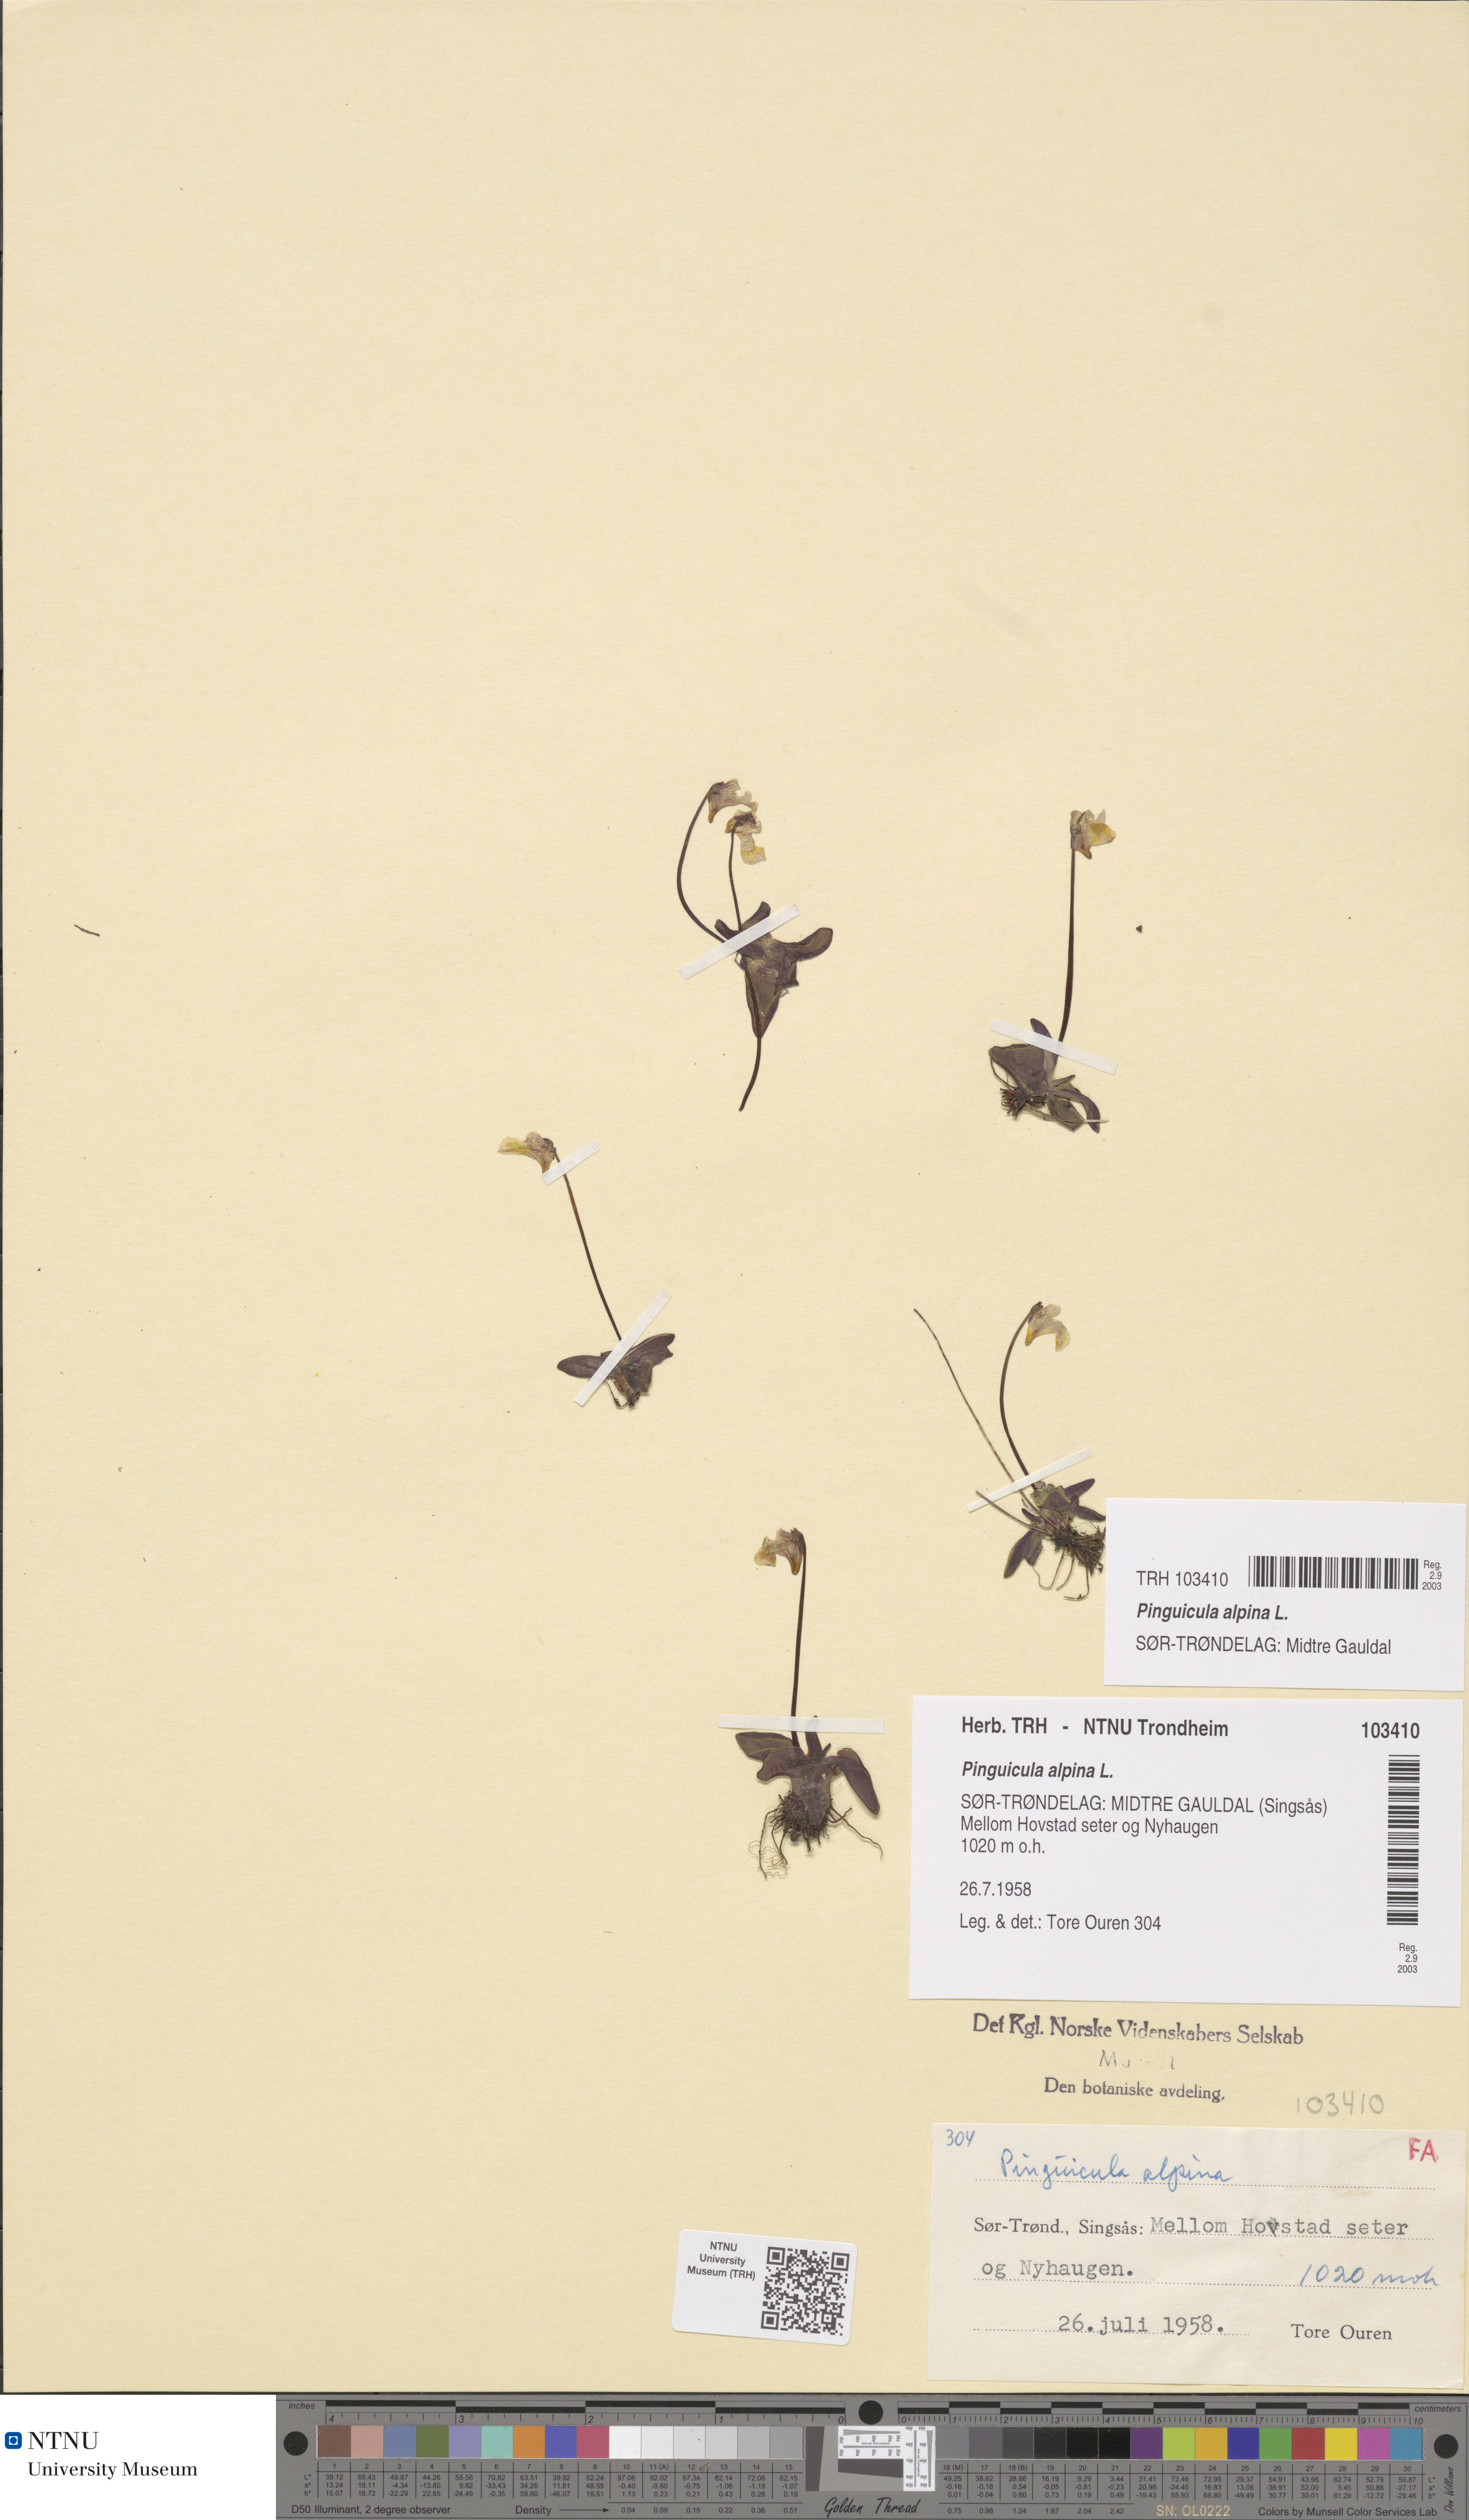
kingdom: Plantae
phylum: Tracheophyta
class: Magnoliopsida
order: Lamiales
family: Lentibulariaceae
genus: Pinguicula
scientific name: Pinguicula alpina
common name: Alpine butterwort
